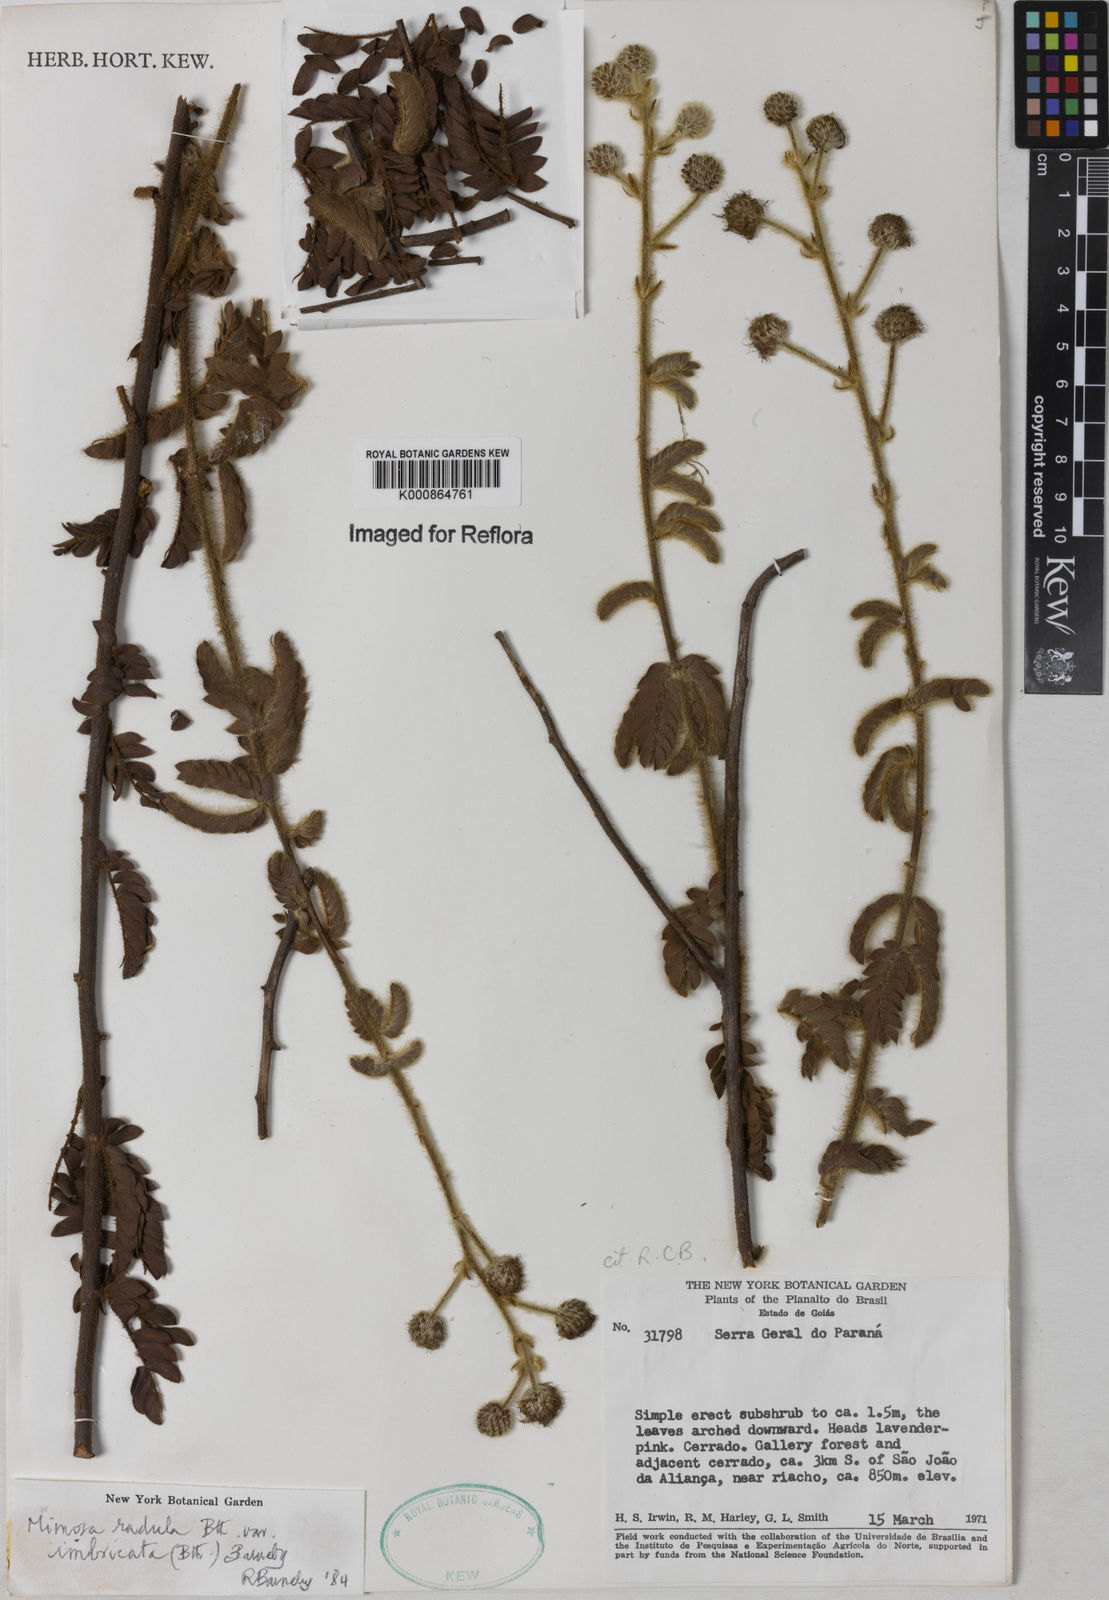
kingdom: Plantae
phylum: Tracheophyta
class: Magnoliopsida
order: Fabales
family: Fabaceae
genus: Mimosa
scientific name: Mimosa radula
